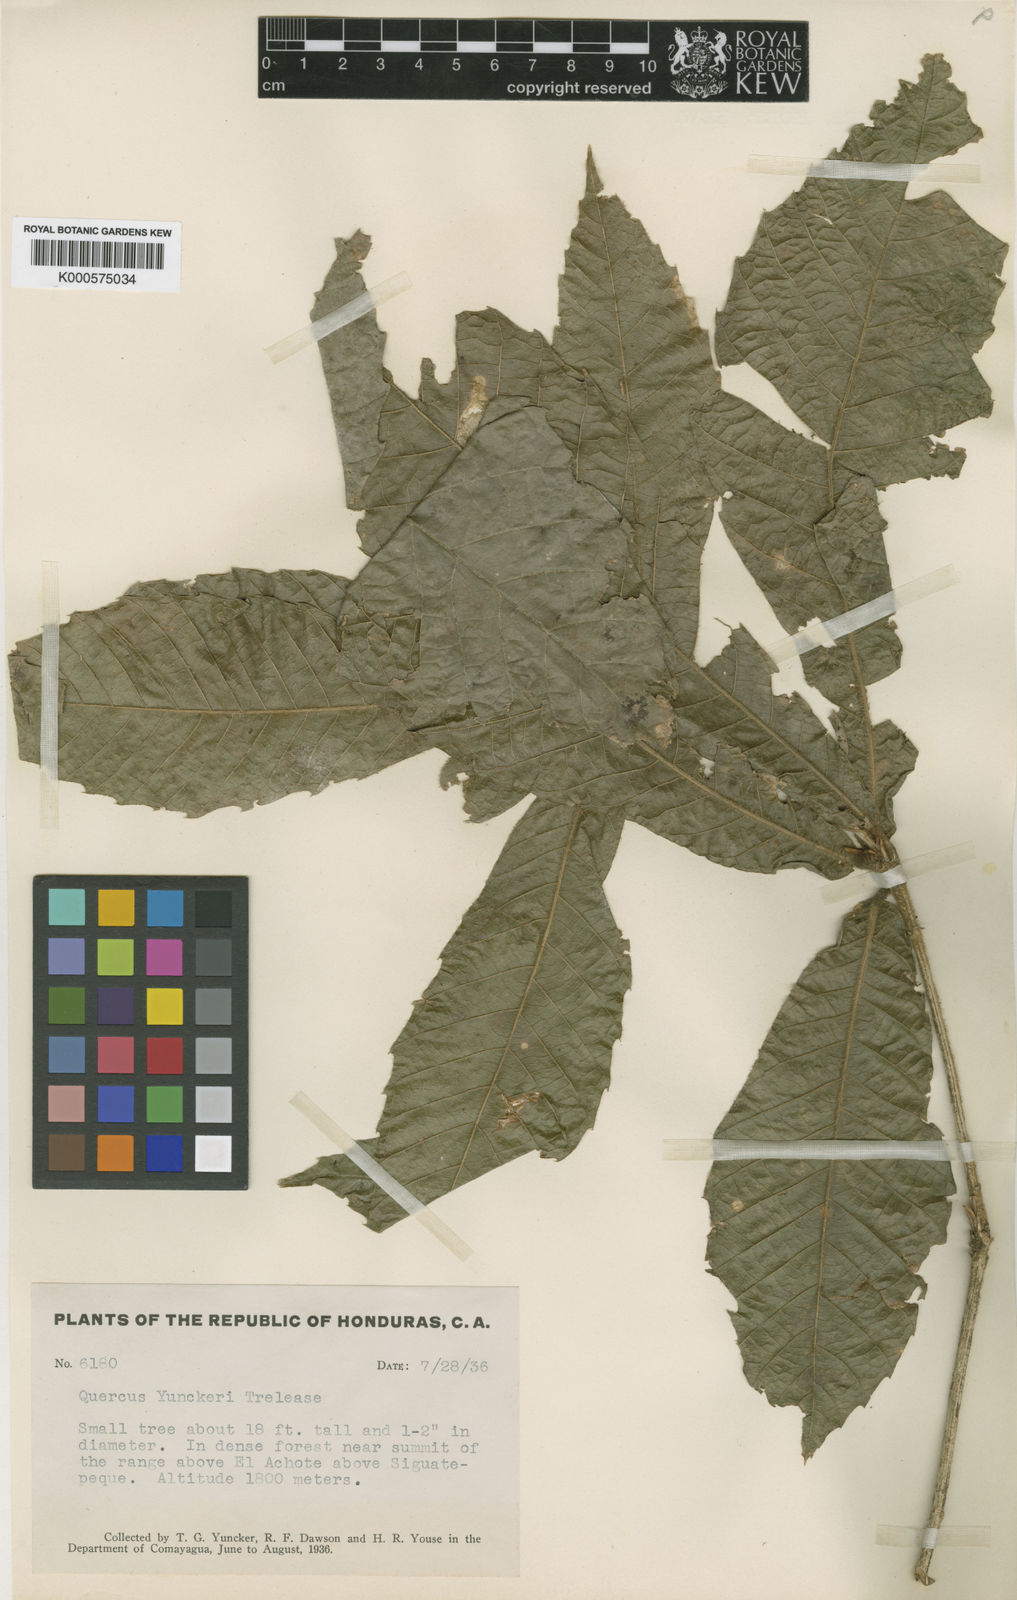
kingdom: Plantae
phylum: Tracheophyta
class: Magnoliopsida
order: Fagales
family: Fagaceae
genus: Quercus
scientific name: Quercus oocarpa
